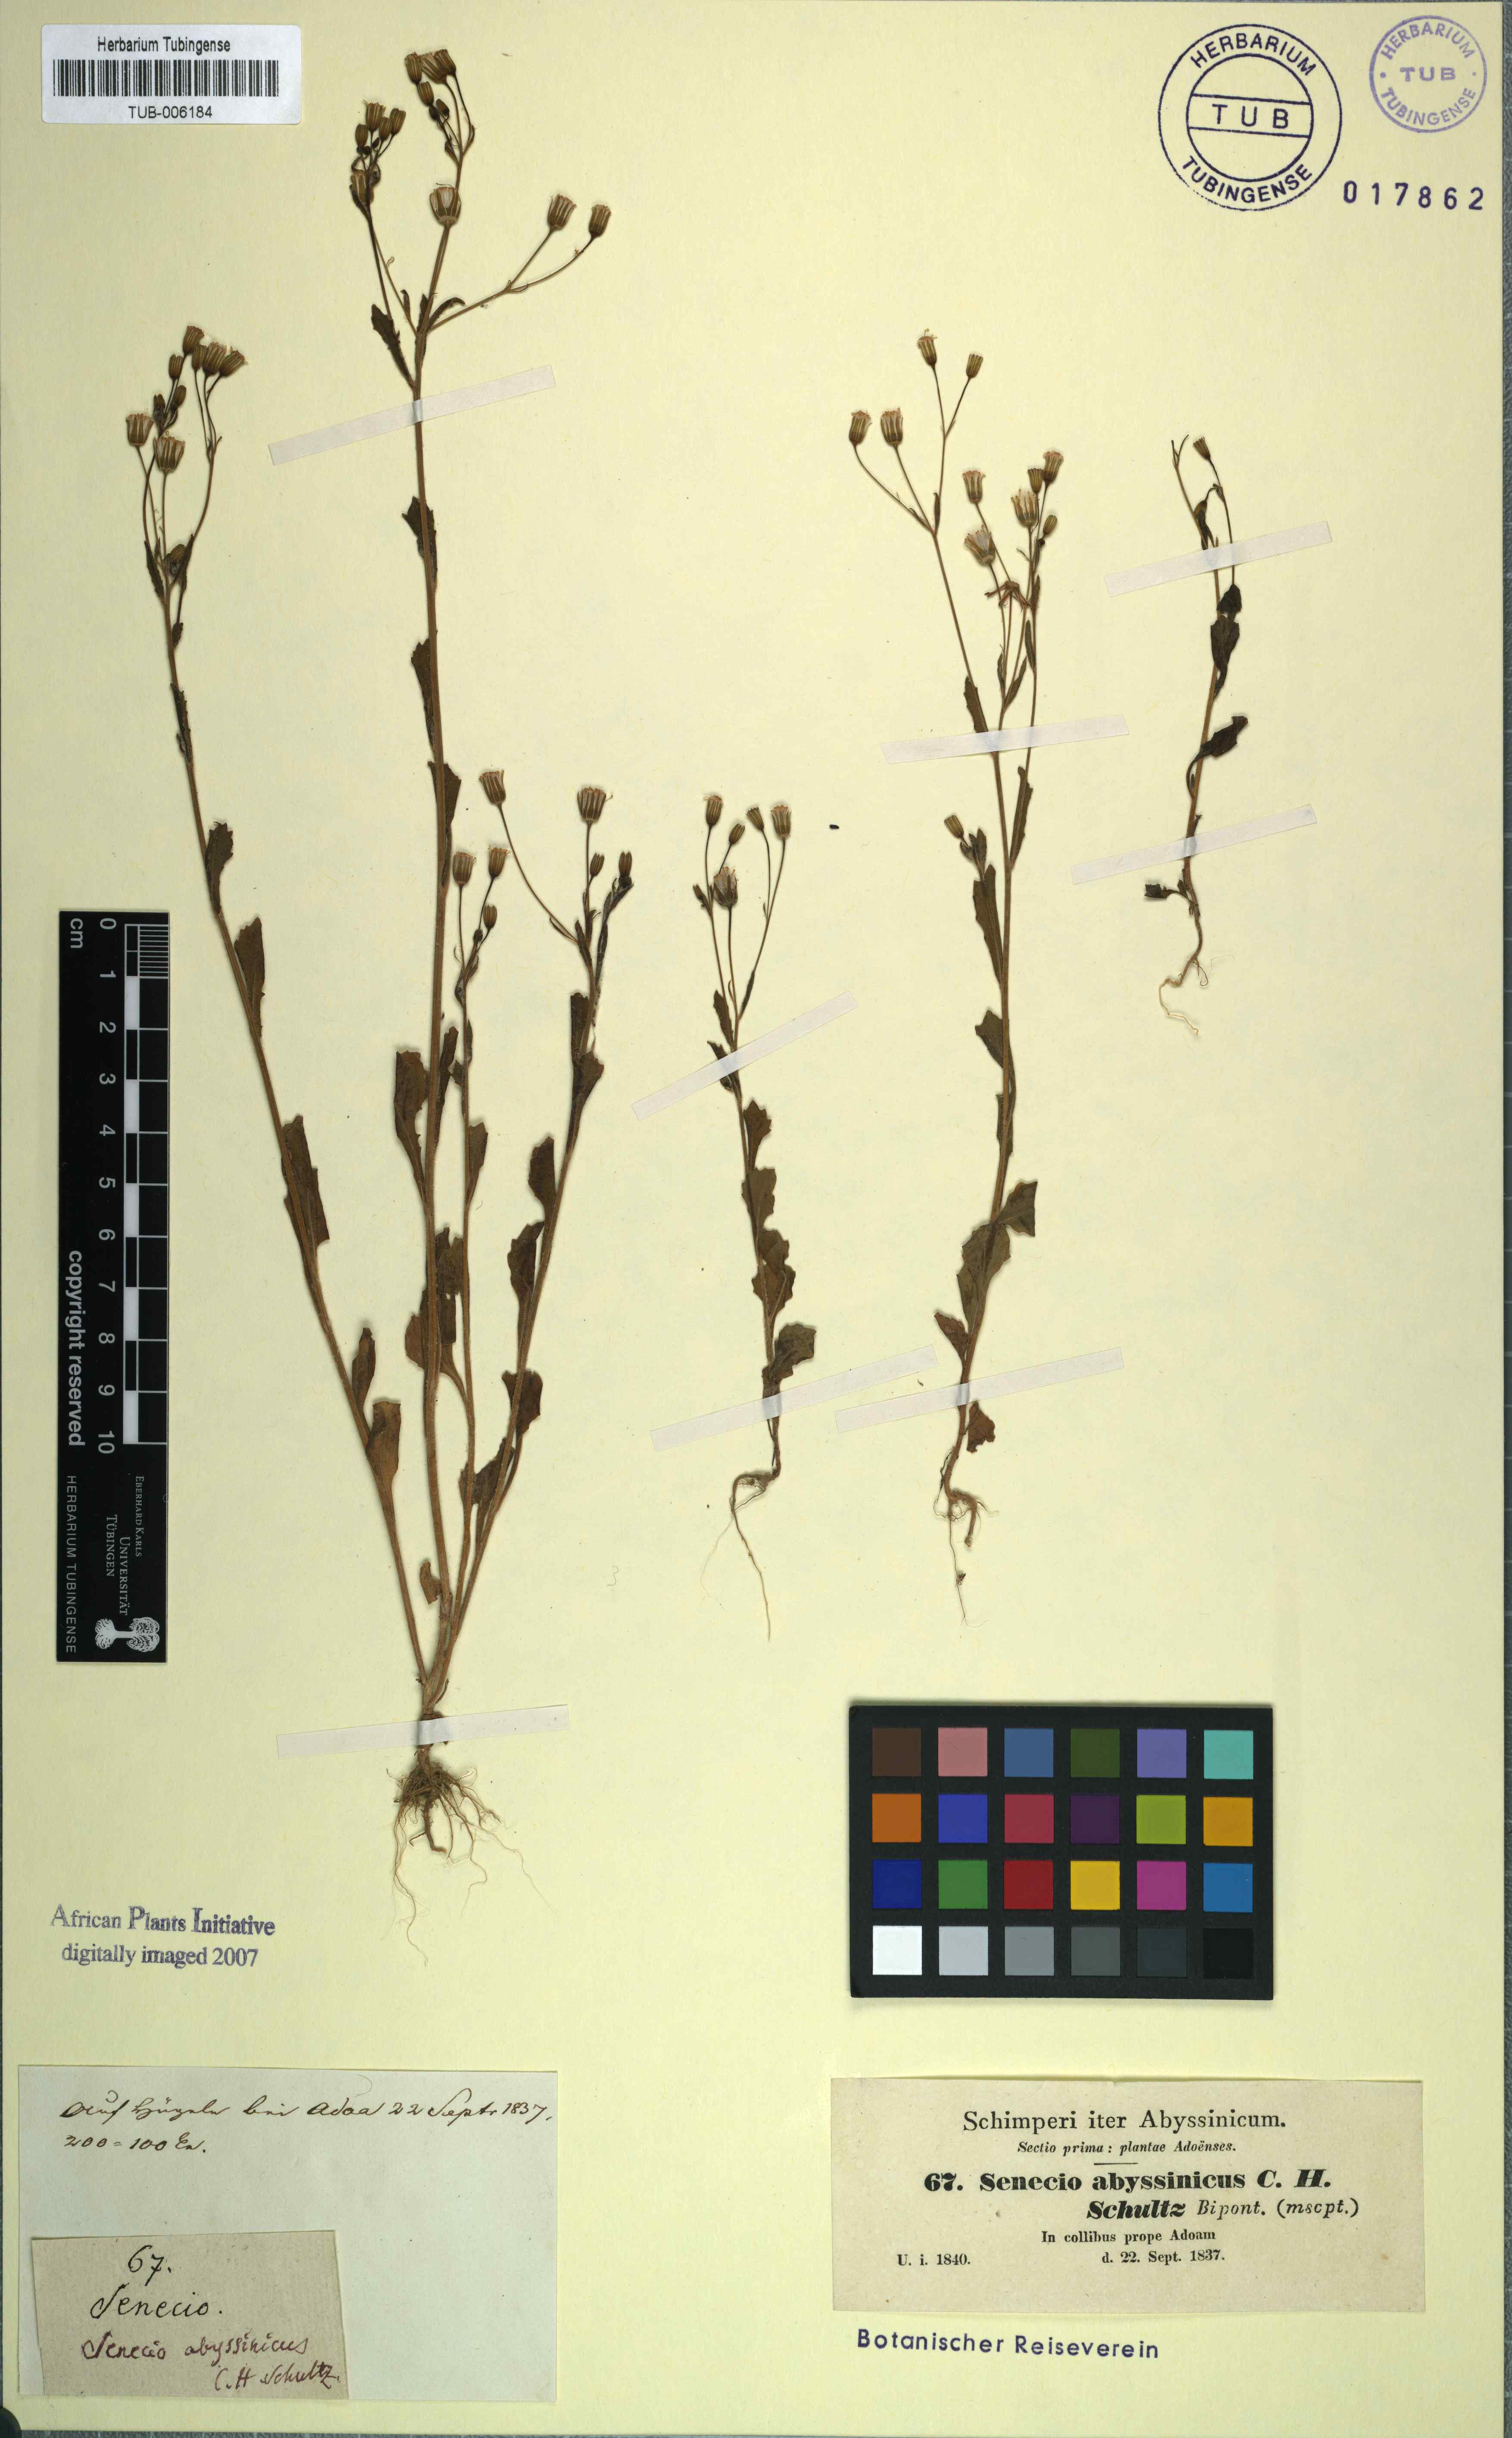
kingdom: Plantae
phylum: Tracheophyta
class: Magnoliopsida
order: Asterales
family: Asteraceae
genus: Emilia
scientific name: Emilia abyssinica
